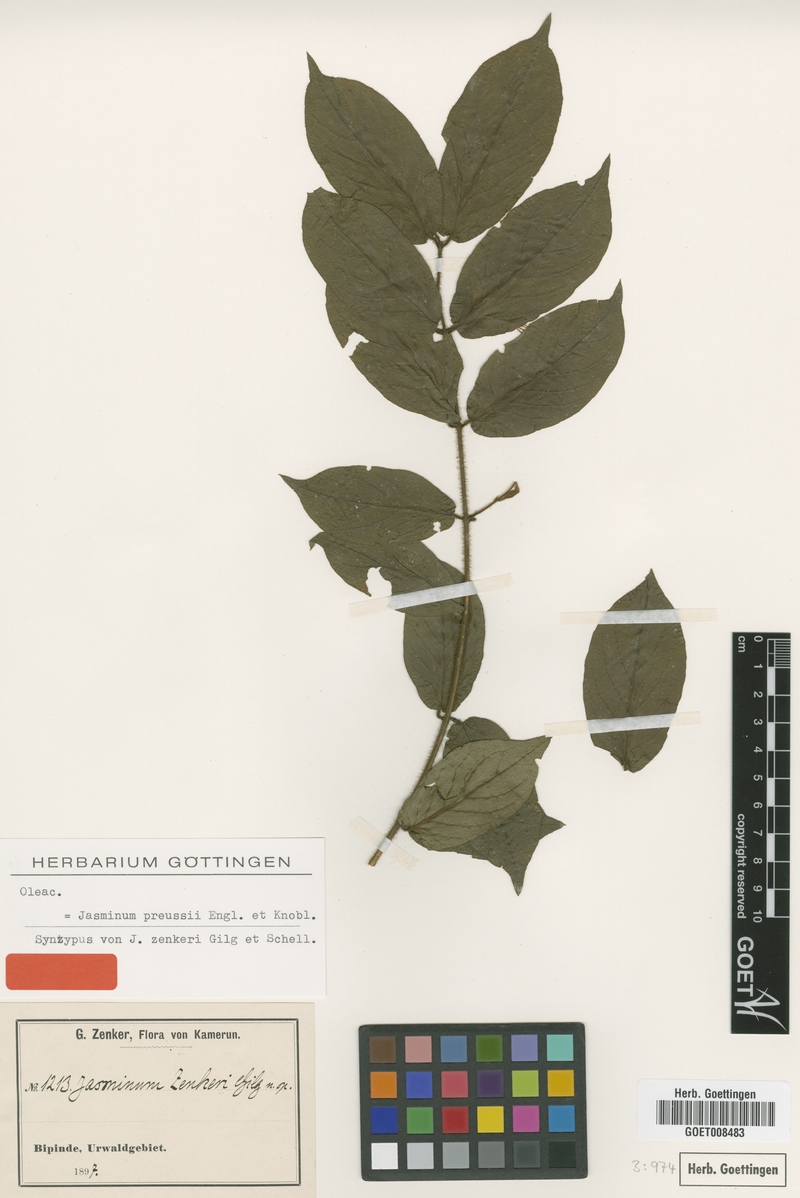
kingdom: Plantae
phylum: Tracheophyta
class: Magnoliopsida
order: Lamiales
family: Oleaceae
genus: Jasminum
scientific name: Jasminum preussii
